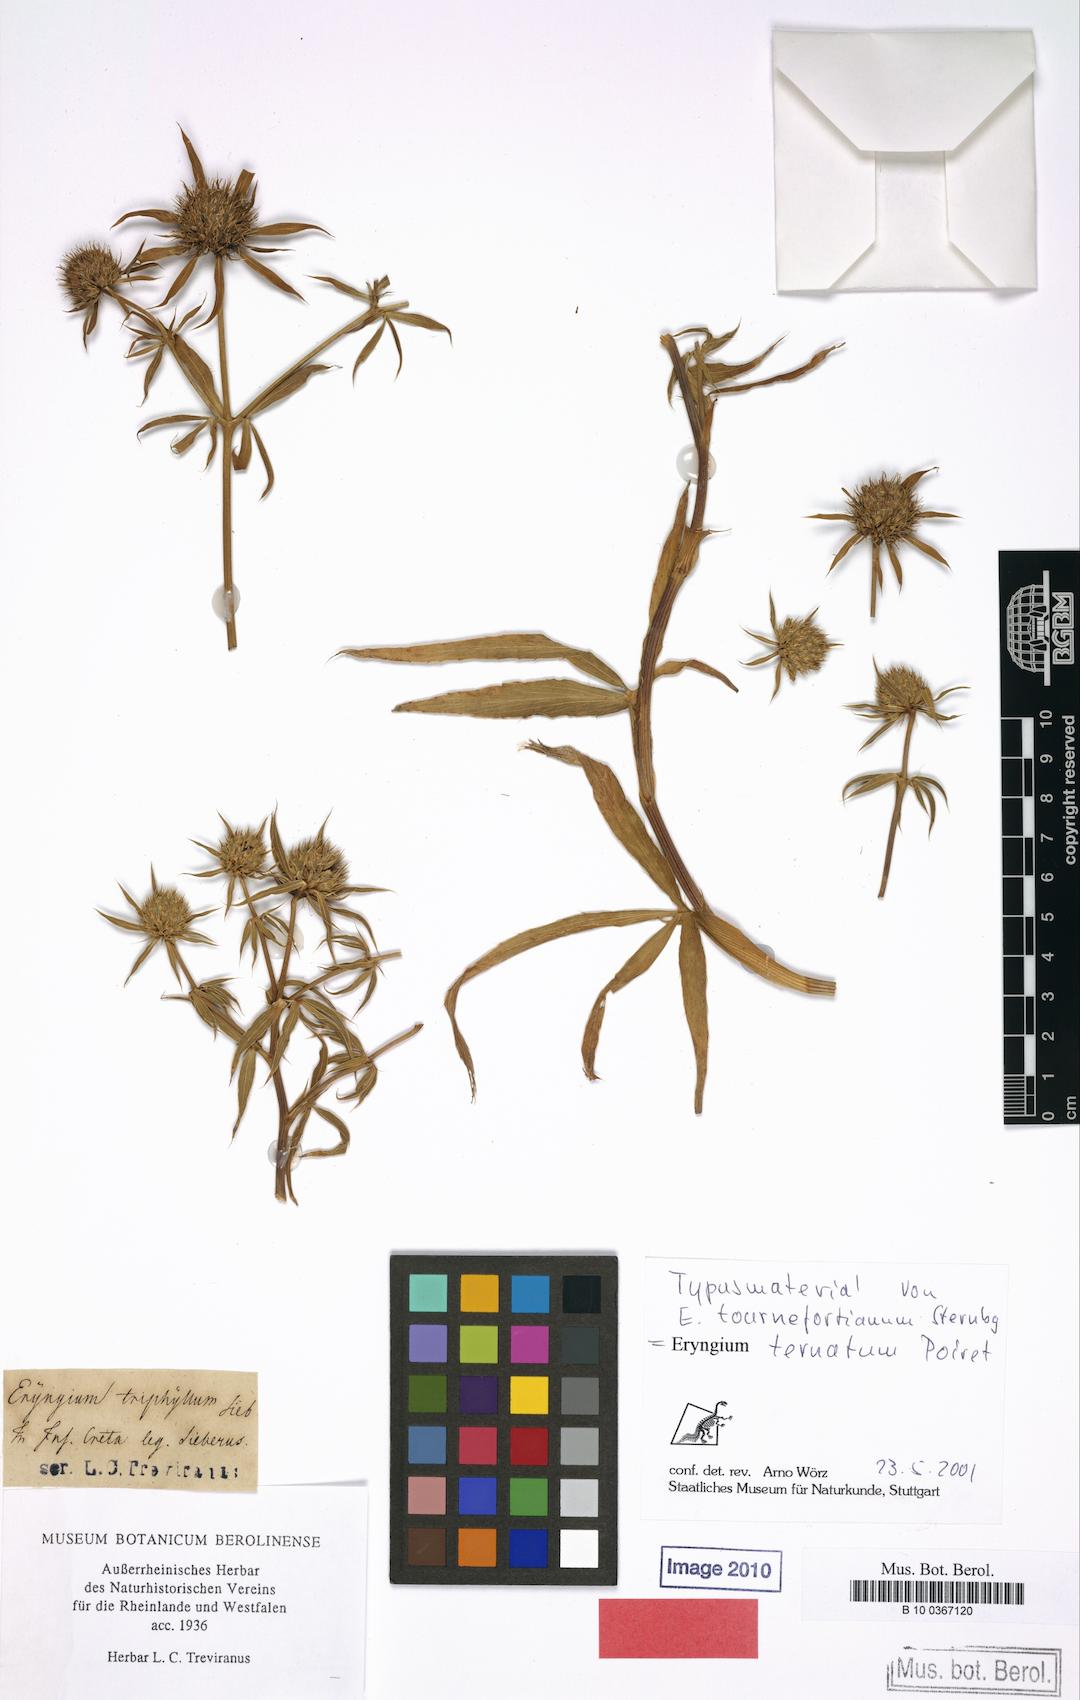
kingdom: Plantae
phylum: Tracheophyta
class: Magnoliopsida
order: Apiales
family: Apiaceae
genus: Eryngium
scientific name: Eryngium ternatum
